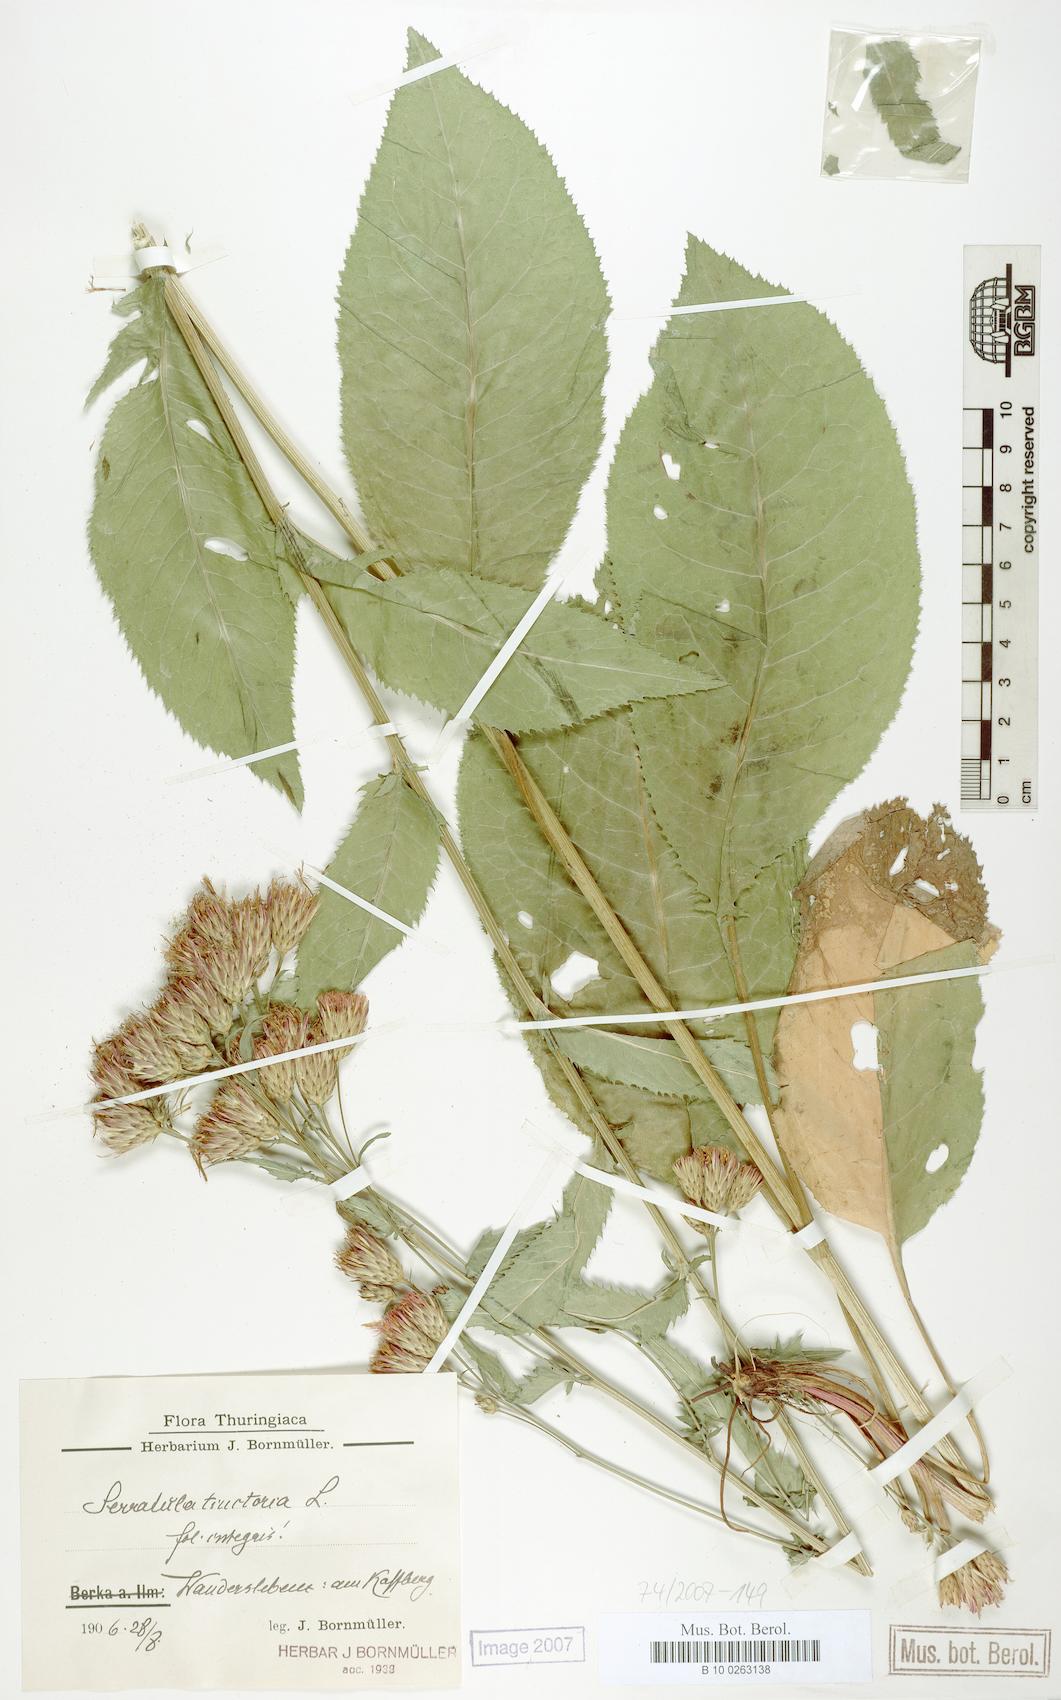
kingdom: Plantae
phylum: Tracheophyta
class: Magnoliopsida
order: Asterales
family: Asteraceae
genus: Serratula
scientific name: Serratula tinctoria
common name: Saw-wort
